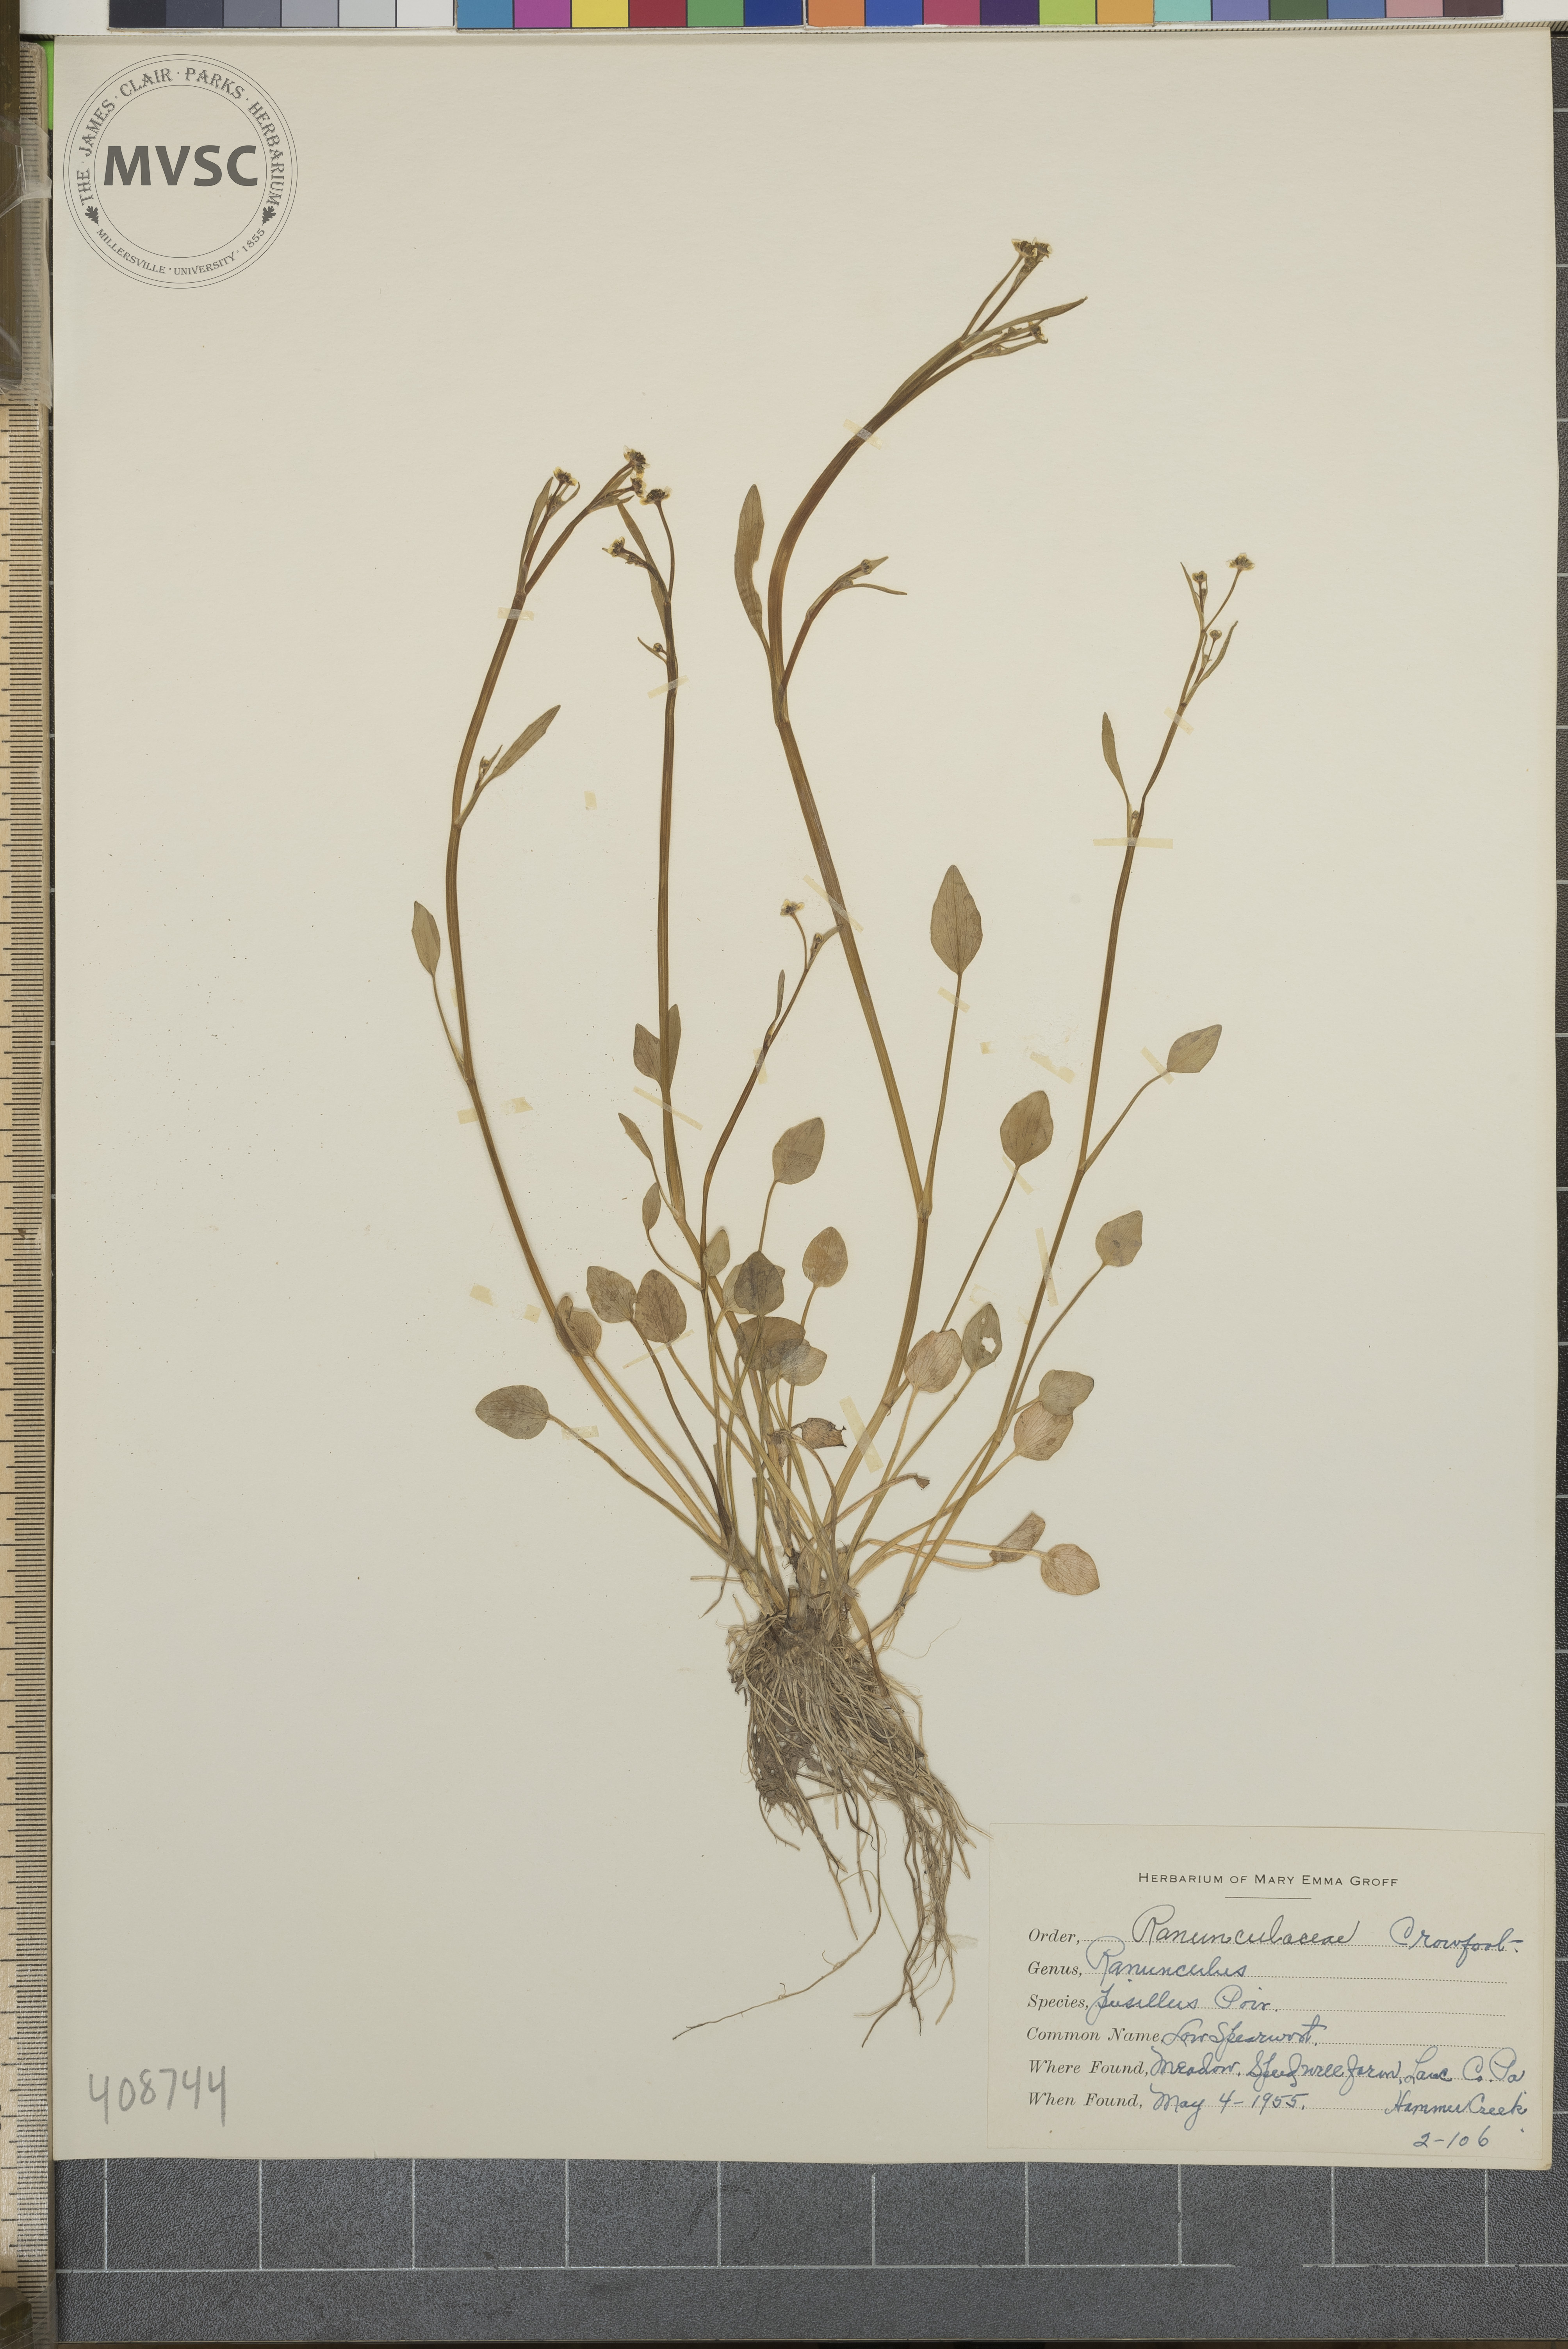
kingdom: Plantae
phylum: Tracheophyta
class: Magnoliopsida
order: Ranunculales
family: Ranunculaceae
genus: Ranunculus
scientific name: Ranunculus pusillus
